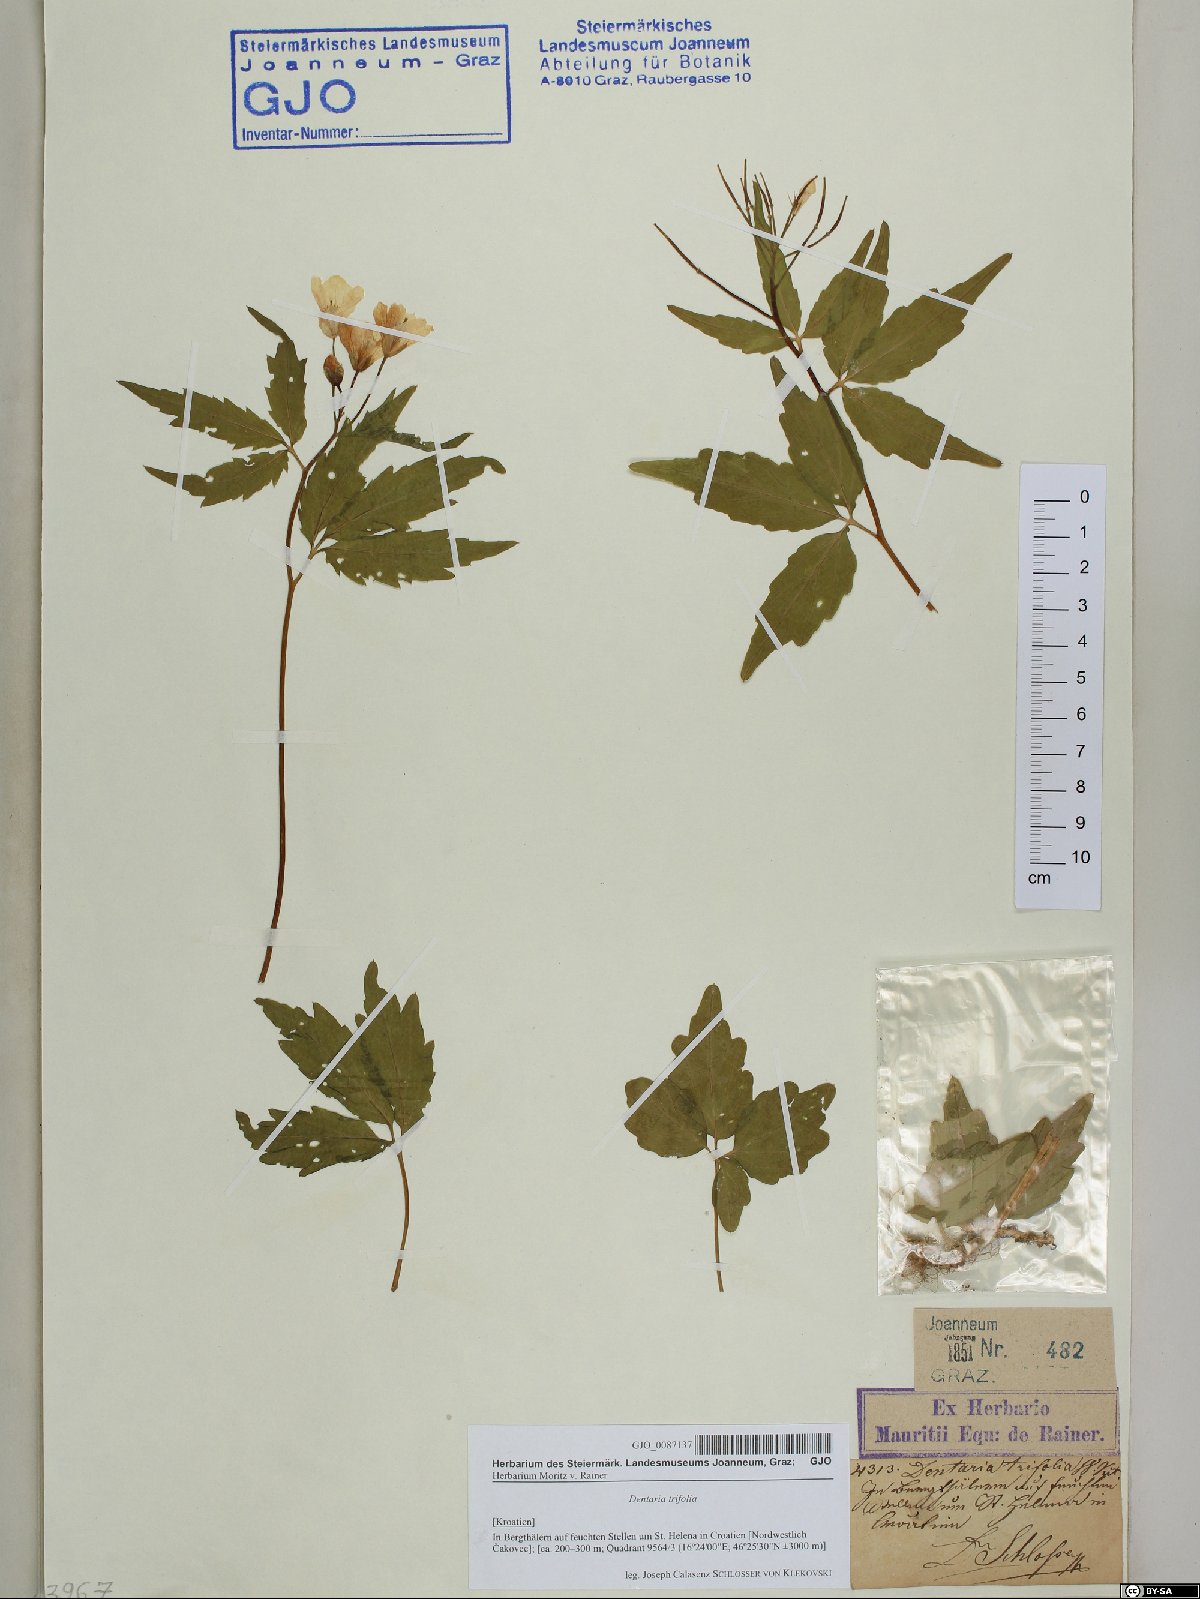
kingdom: Plantae
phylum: Tracheophyta
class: Magnoliopsida
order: Brassicales
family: Brassicaceae
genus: Cardamine
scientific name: Cardamine waldsteinii
